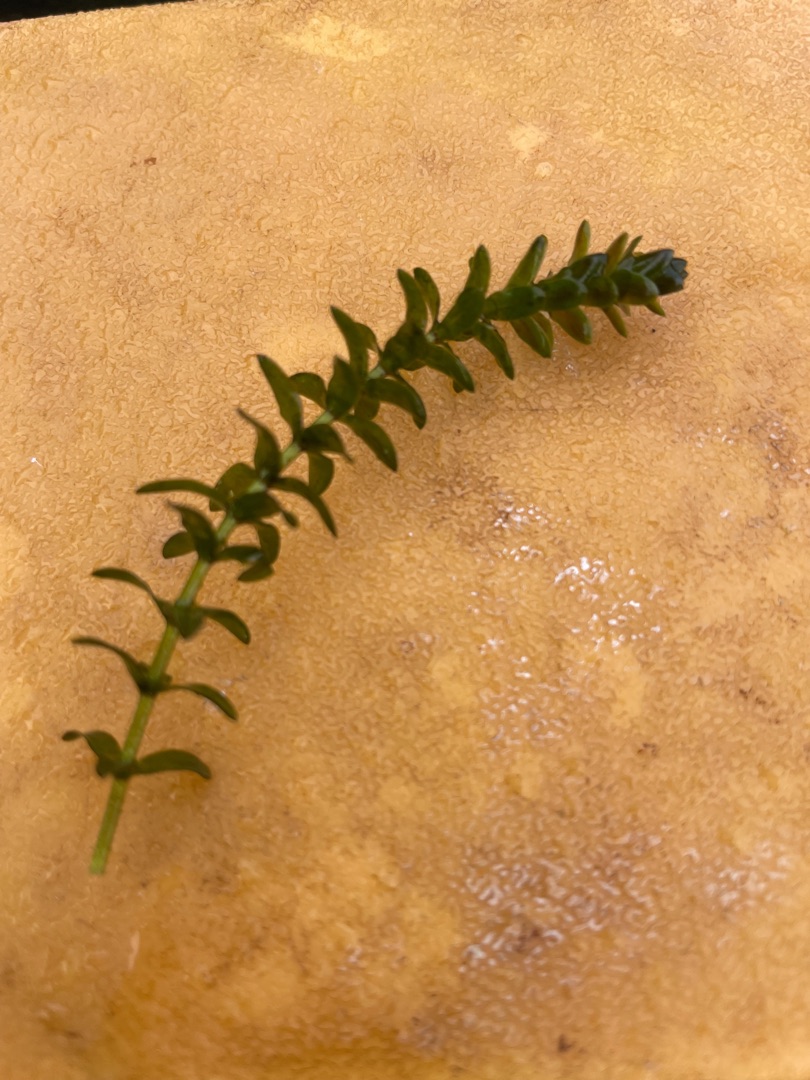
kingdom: Plantae
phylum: Tracheophyta
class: Liliopsida
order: Alismatales
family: Hydrocharitaceae
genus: Elodea
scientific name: Elodea canadensis
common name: Vandpest
